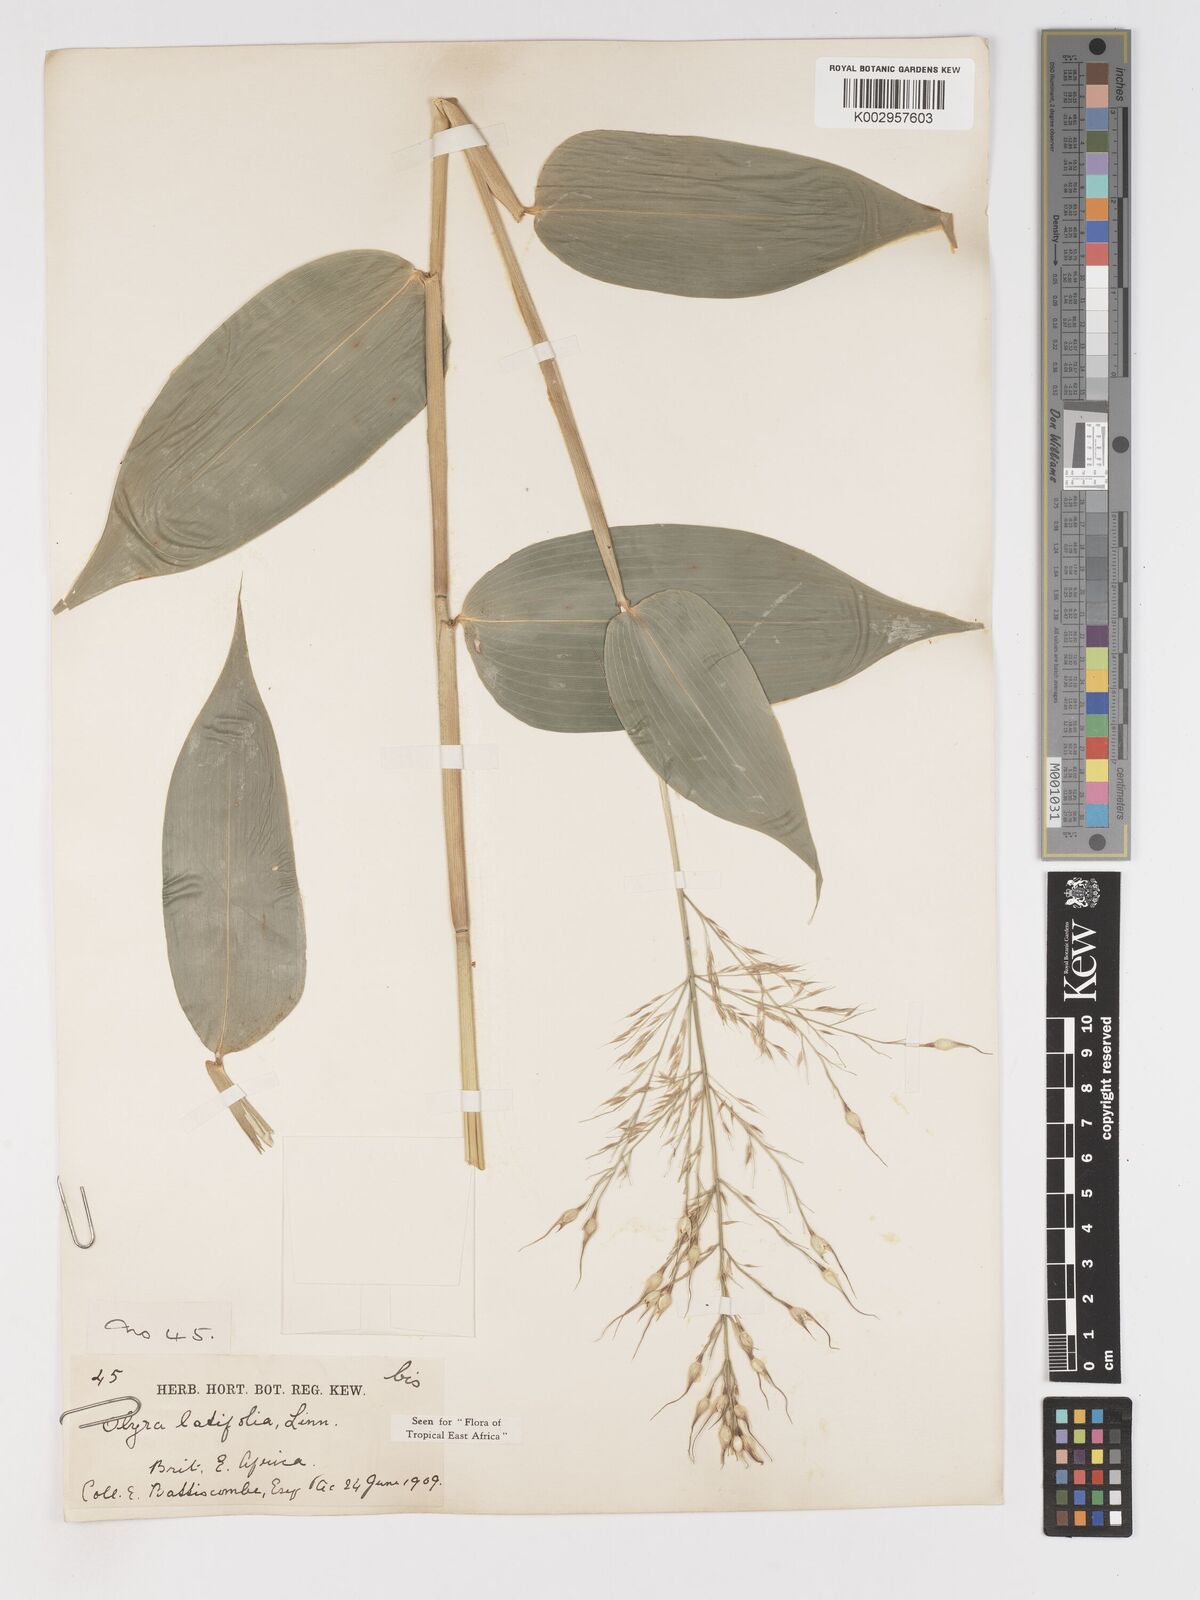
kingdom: Plantae
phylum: Tracheophyta
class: Liliopsida
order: Poales
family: Poaceae
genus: Olyra
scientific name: Olyra latifolia
